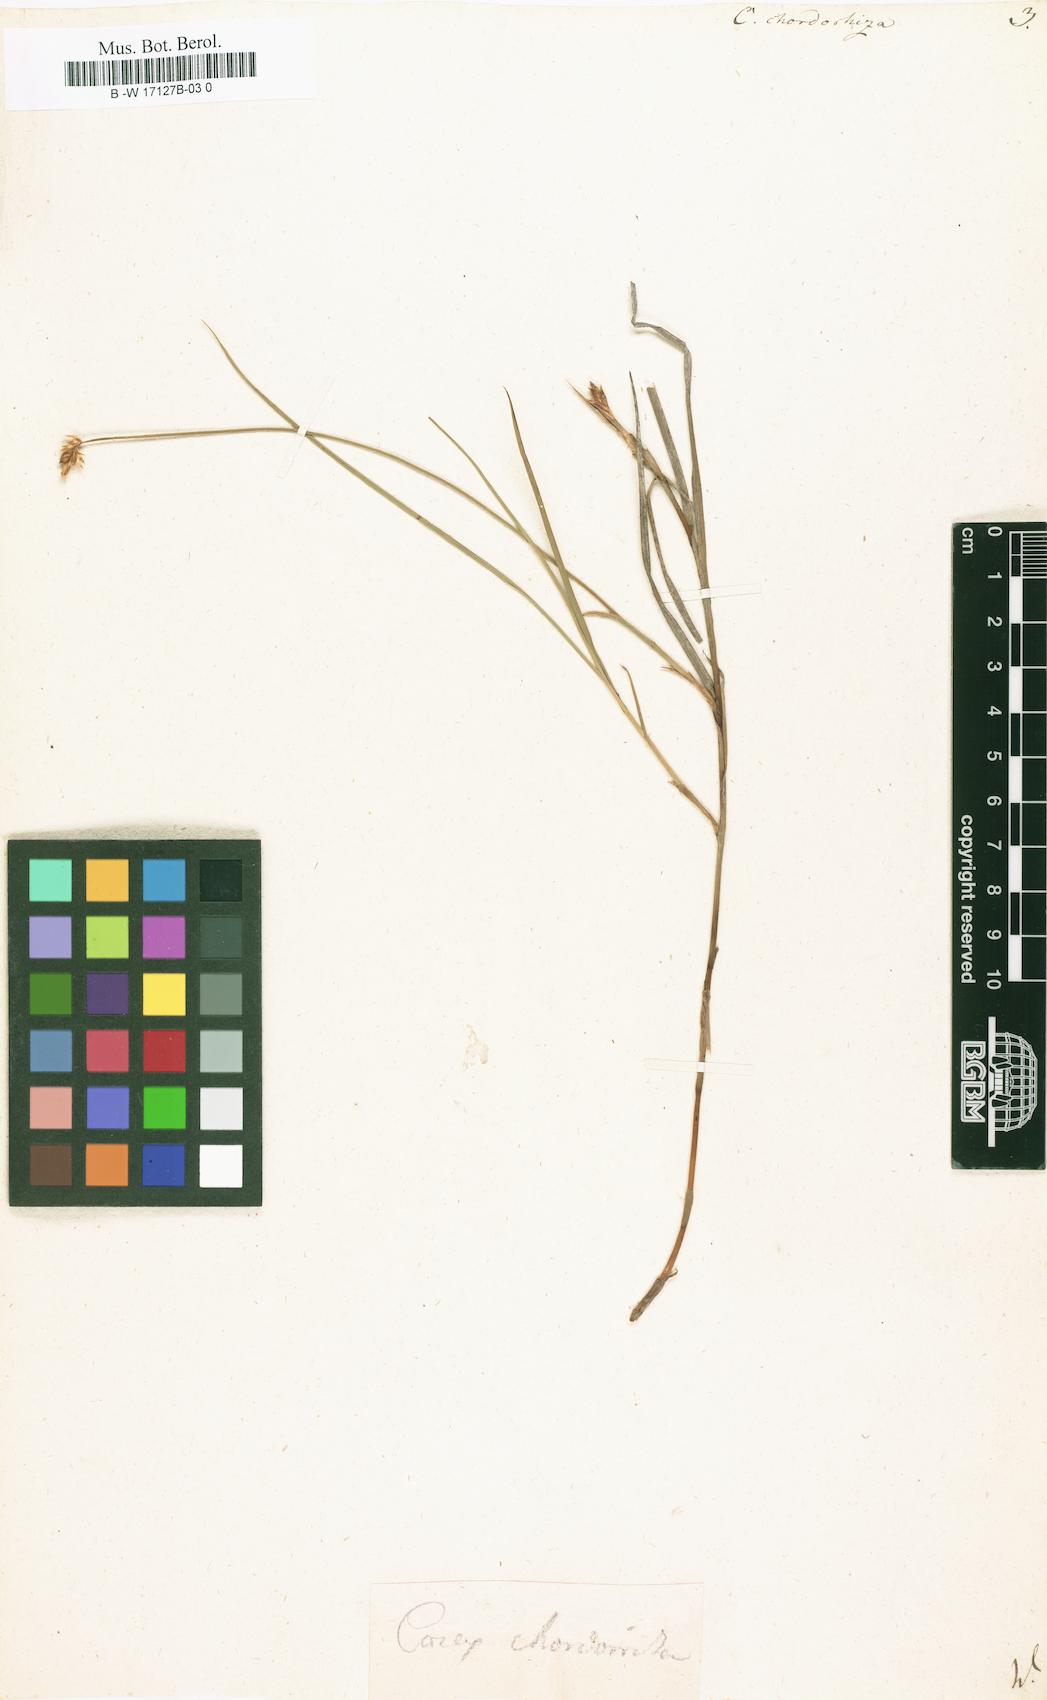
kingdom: Plantae
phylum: Tracheophyta
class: Liliopsida
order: Poales
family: Cyperaceae
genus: Carex
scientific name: Carex chordorrhiza
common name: String sedge
